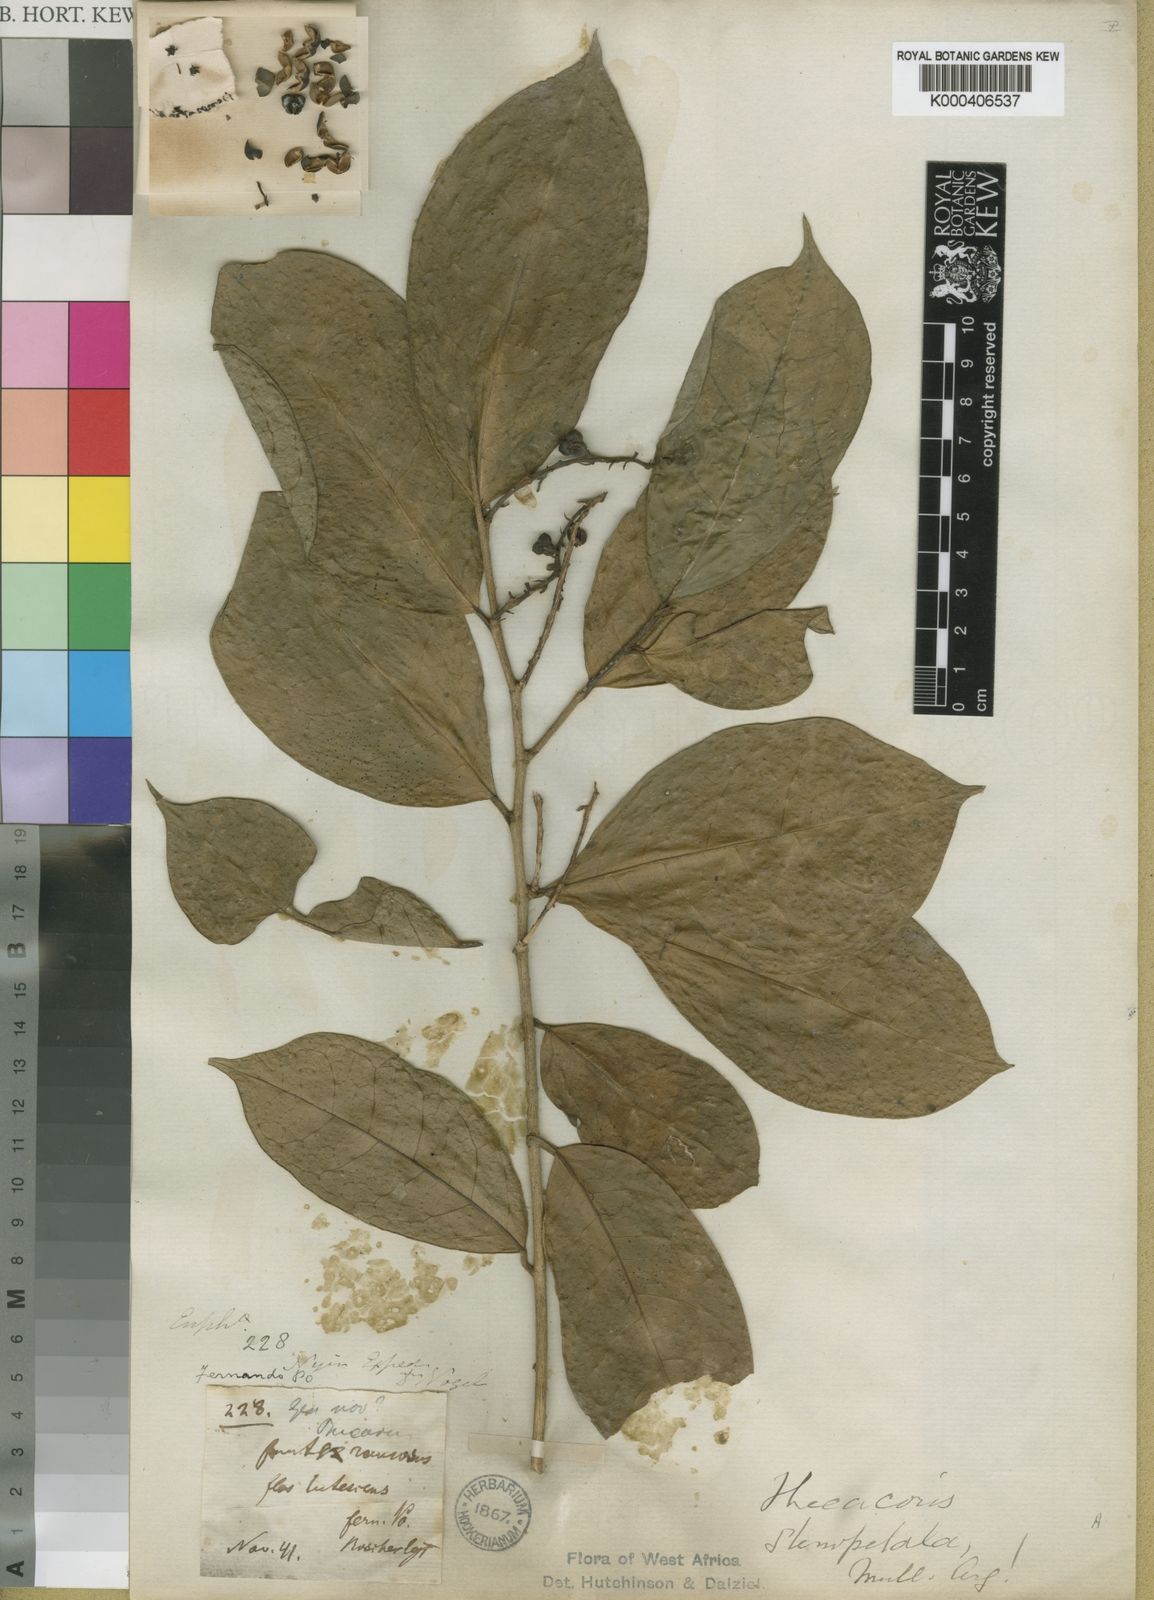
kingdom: Plantae
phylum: Tracheophyta
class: Magnoliopsida
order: Malpighiales
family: Phyllanthaceae
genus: Thecacoris
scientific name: Thecacoris
